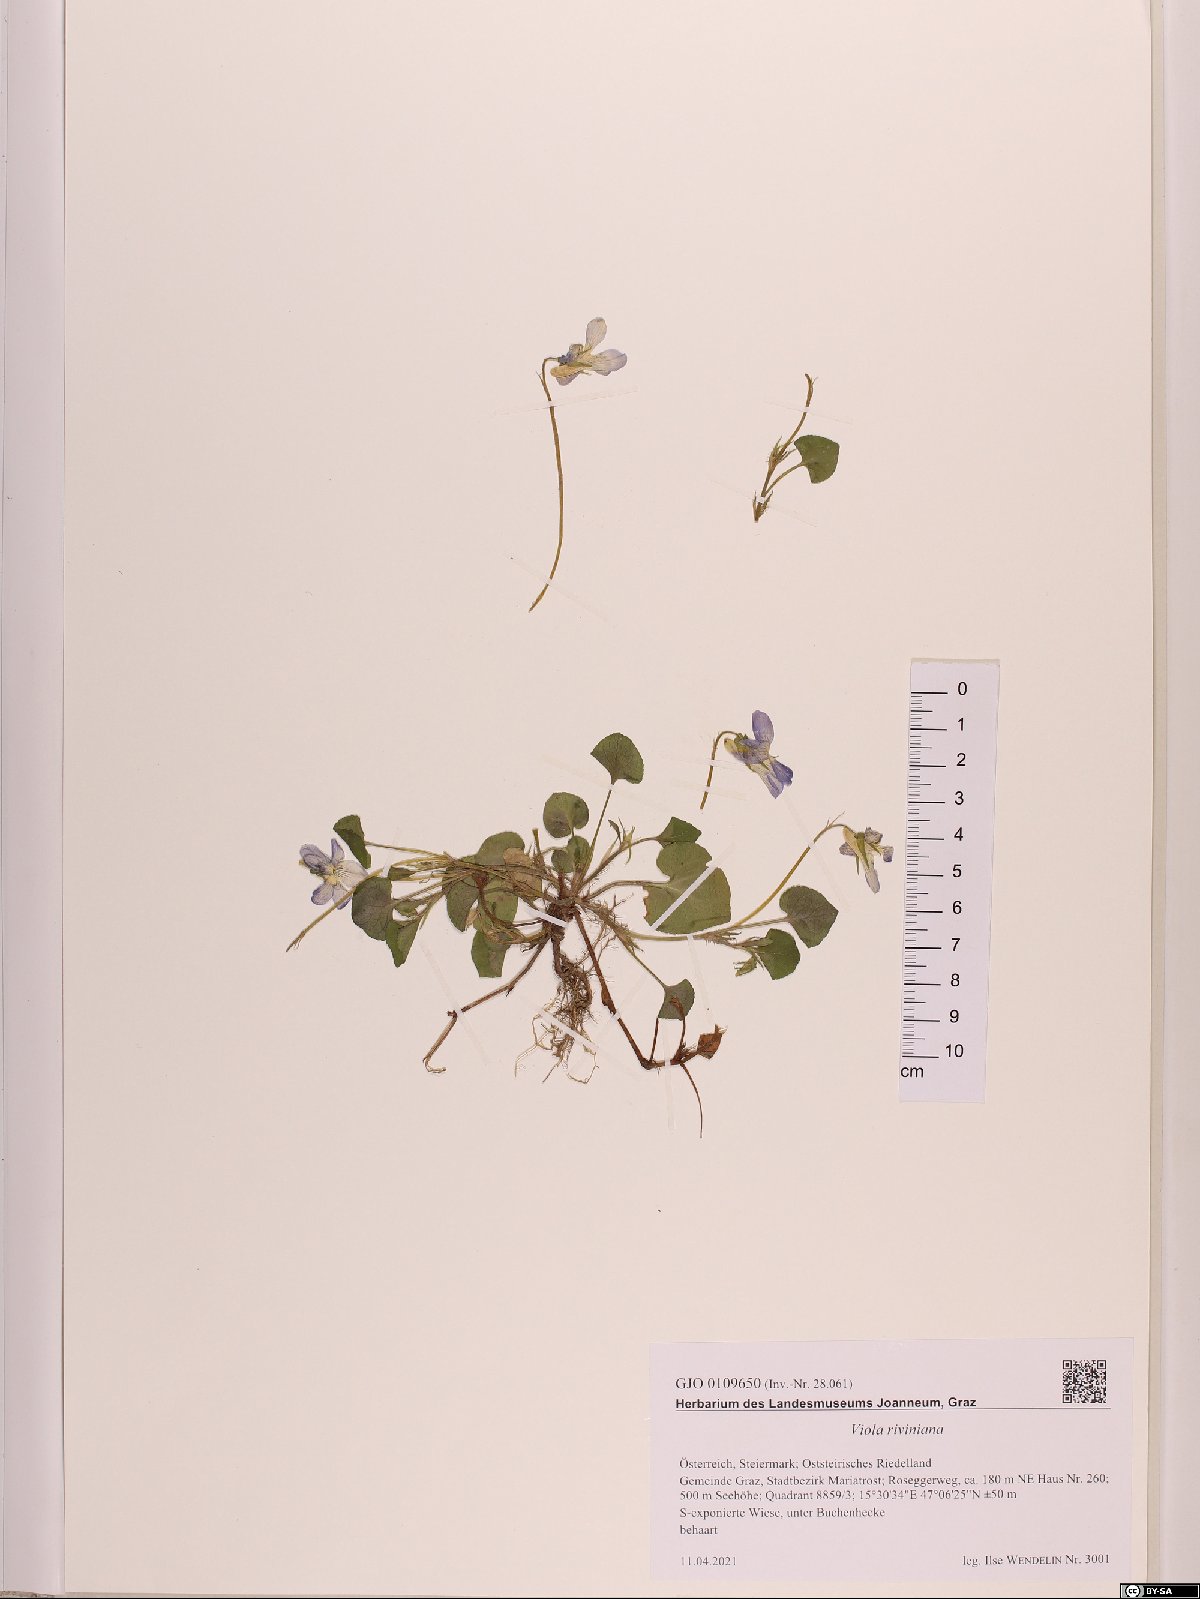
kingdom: Plantae
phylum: Tracheophyta
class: Magnoliopsida
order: Malpighiales
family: Violaceae
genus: Viola
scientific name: Viola riviniana
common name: Common dog-violet
